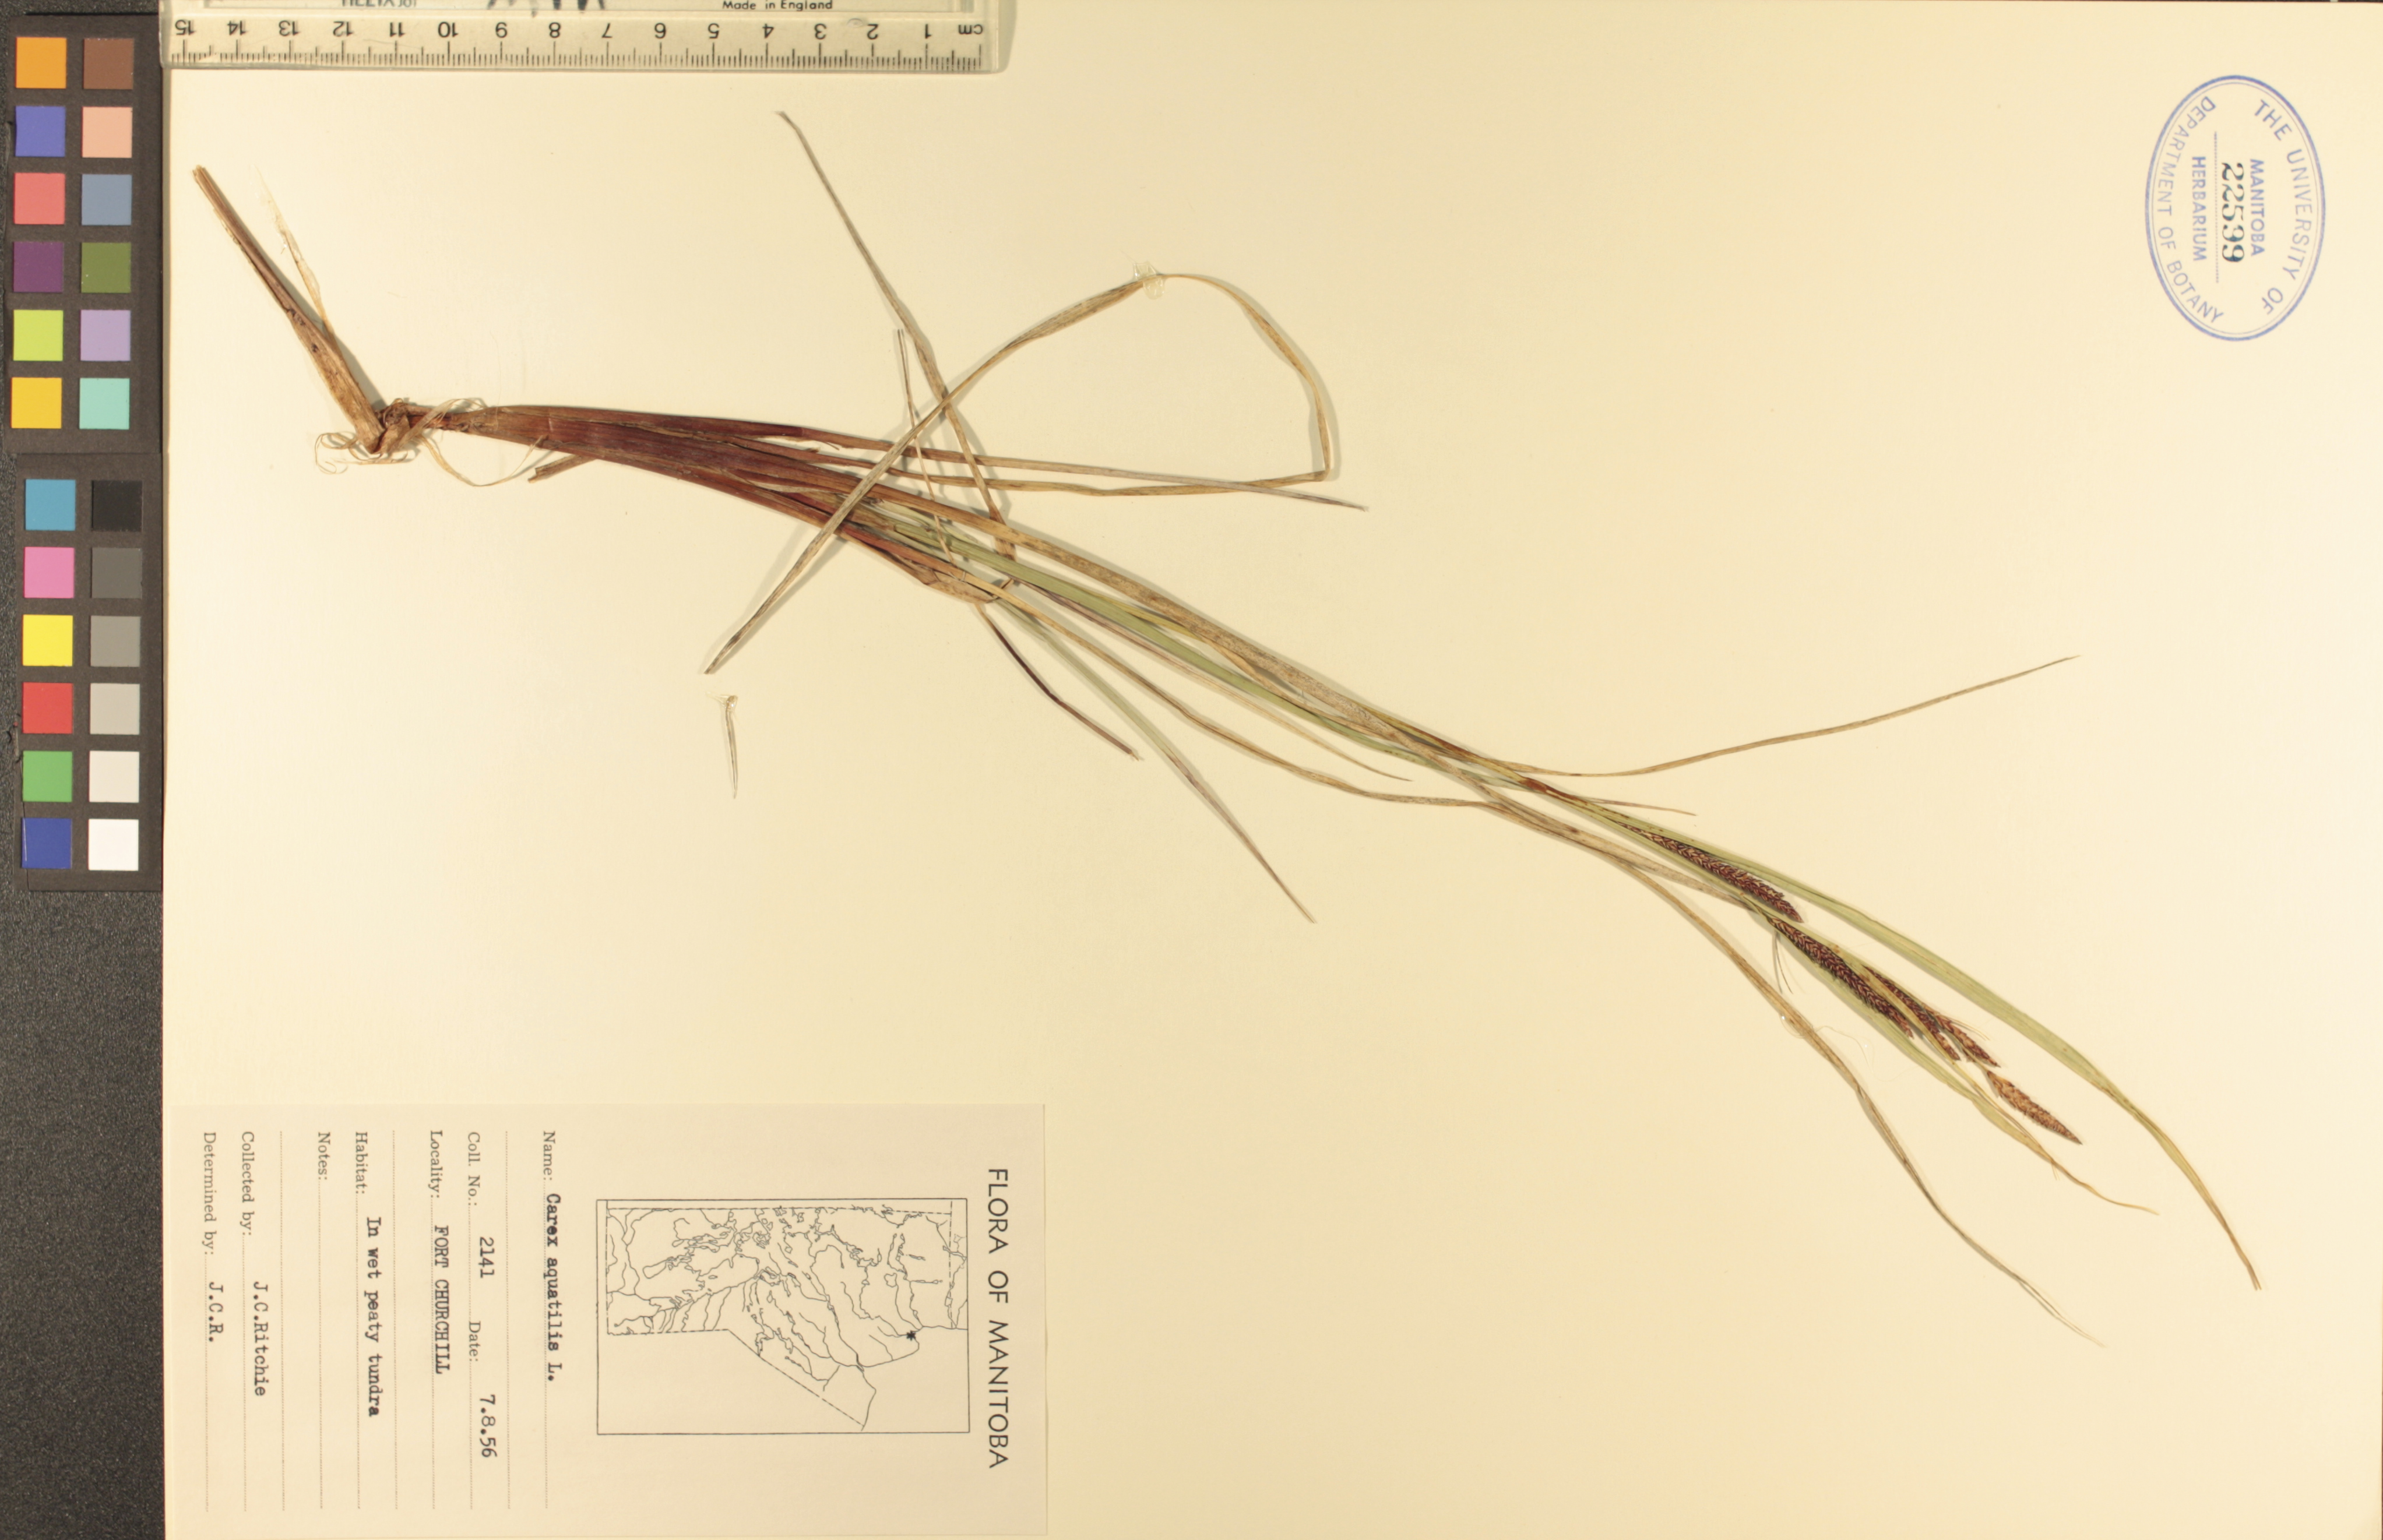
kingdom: Plantae
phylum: Tracheophyta
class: Liliopsida
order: Poales
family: Cyperaceae
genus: Carex
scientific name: Carex aquatilis
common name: Water sedge
